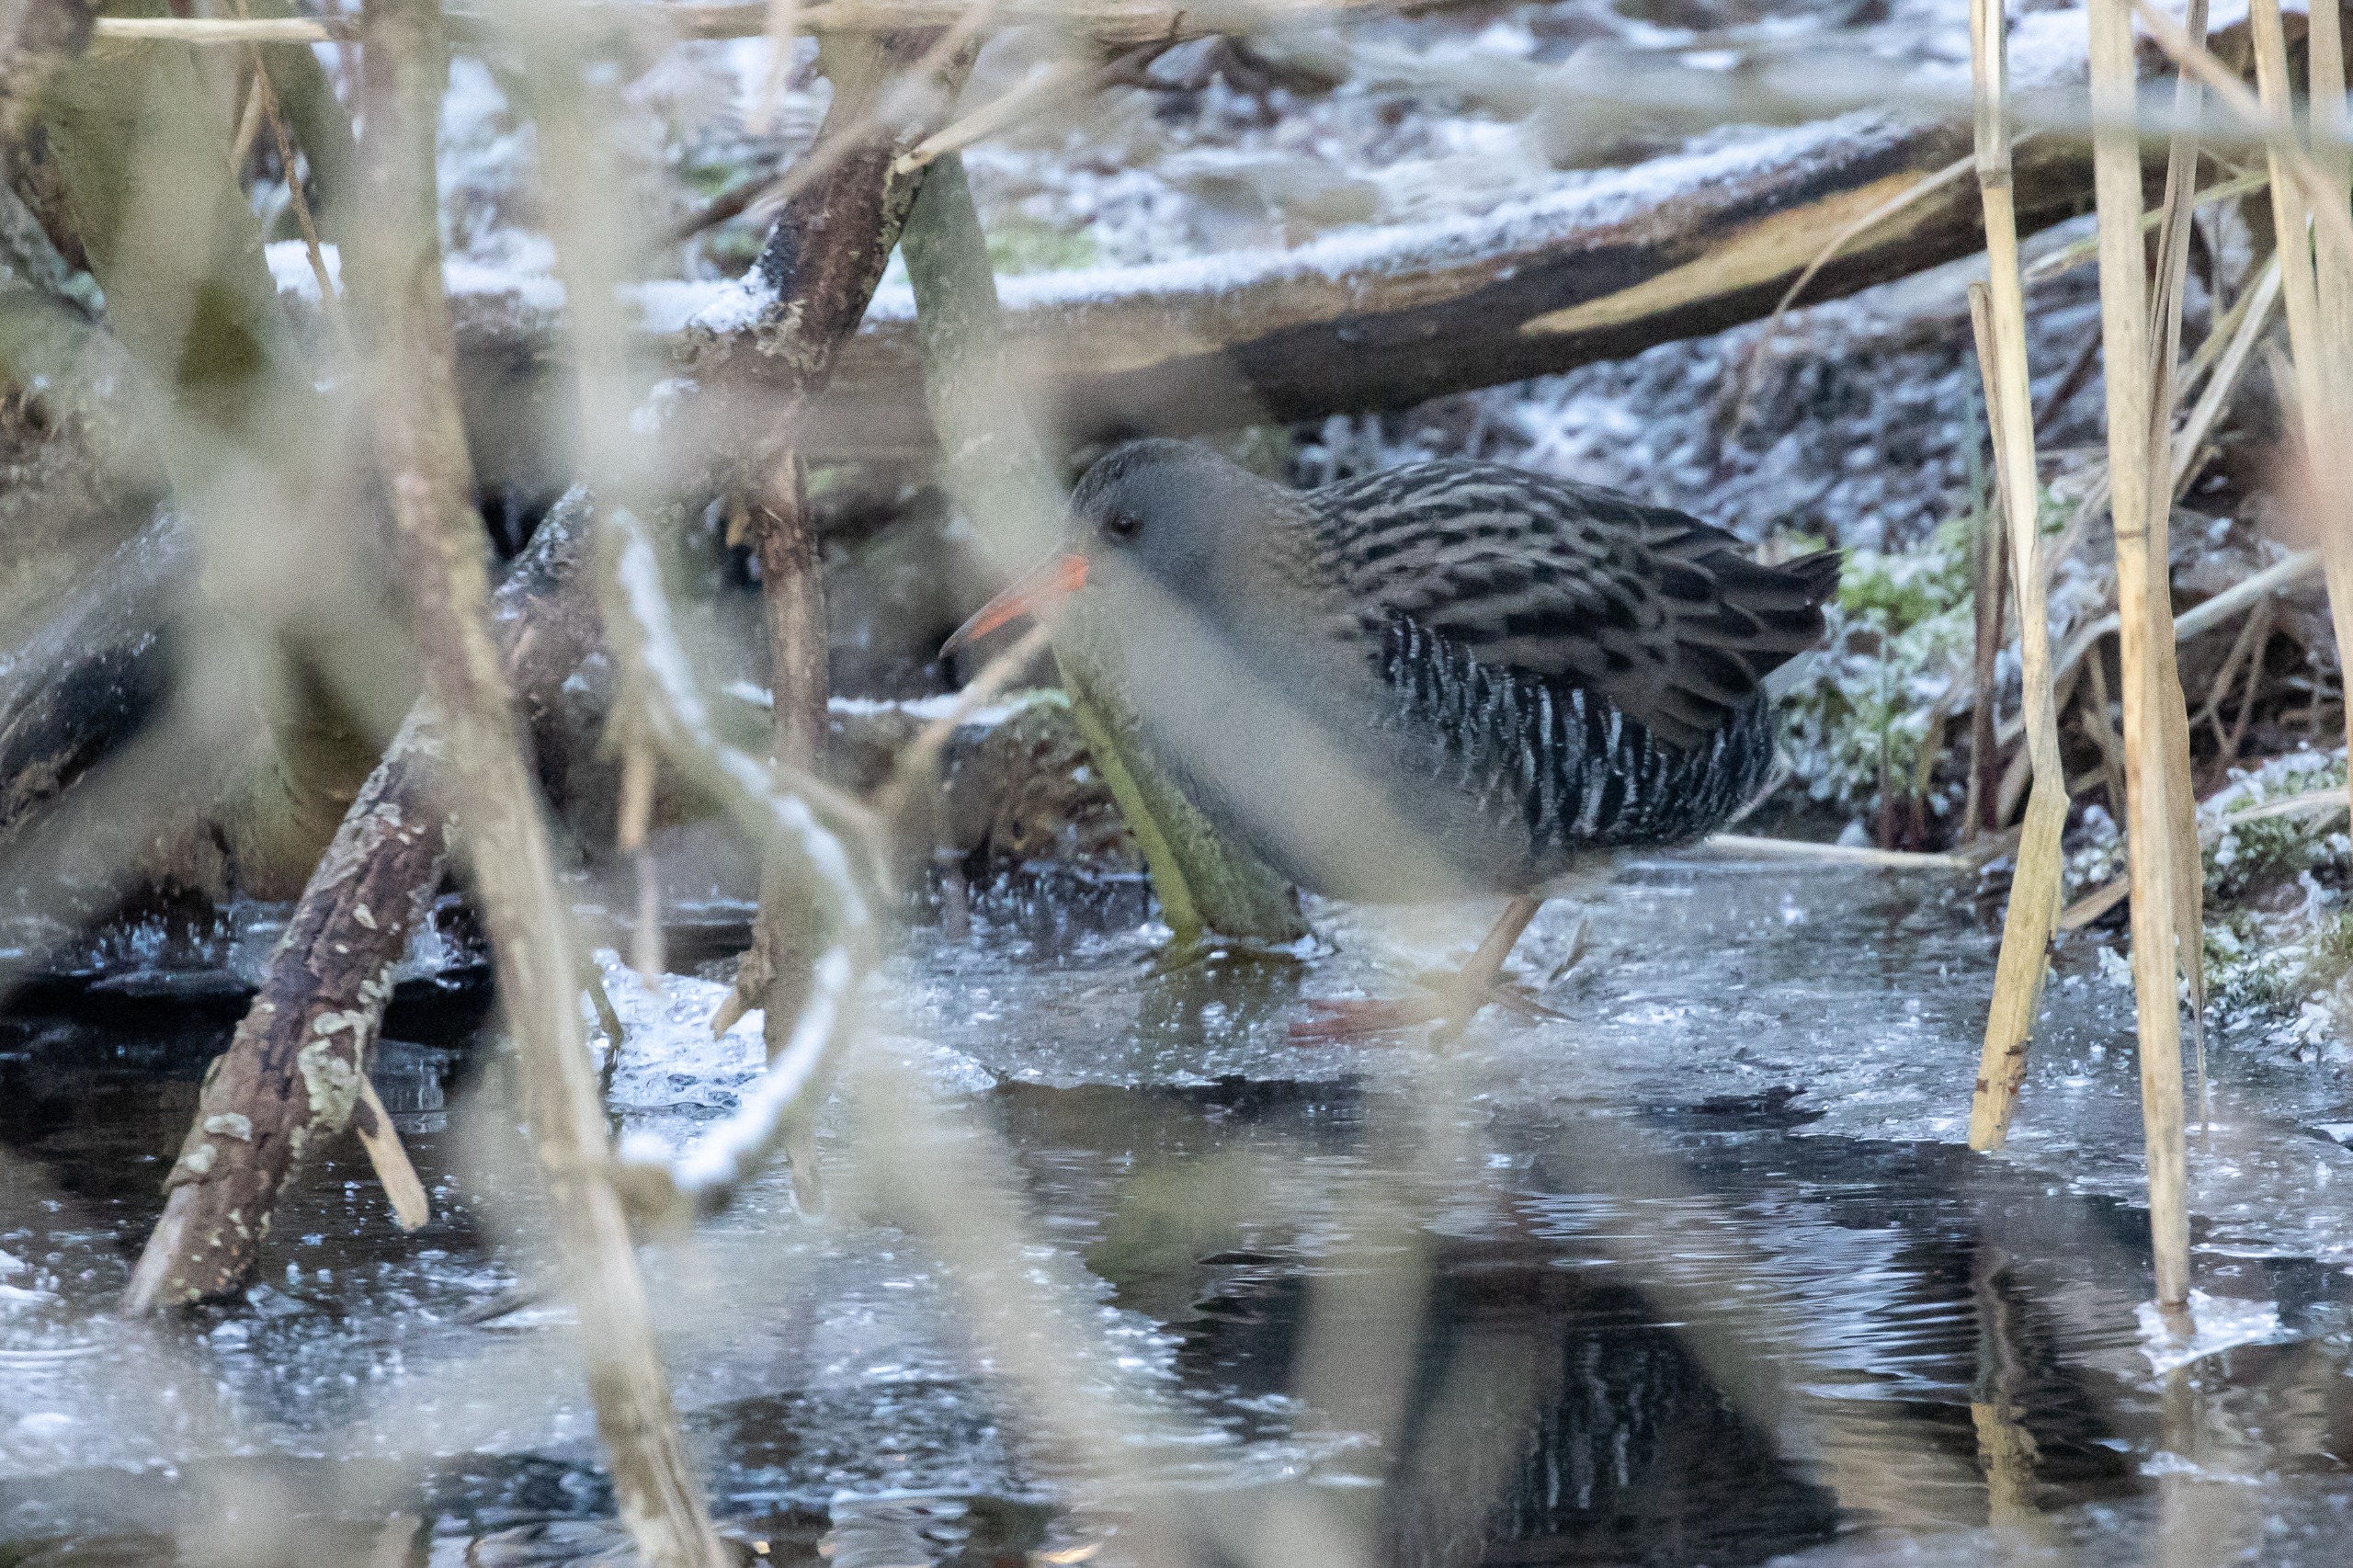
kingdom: Animalia
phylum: Chordata
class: Aves
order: Gruiformes
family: Rallidae
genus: Rallus
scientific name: Rallus aquaticus
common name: Vandrikse
